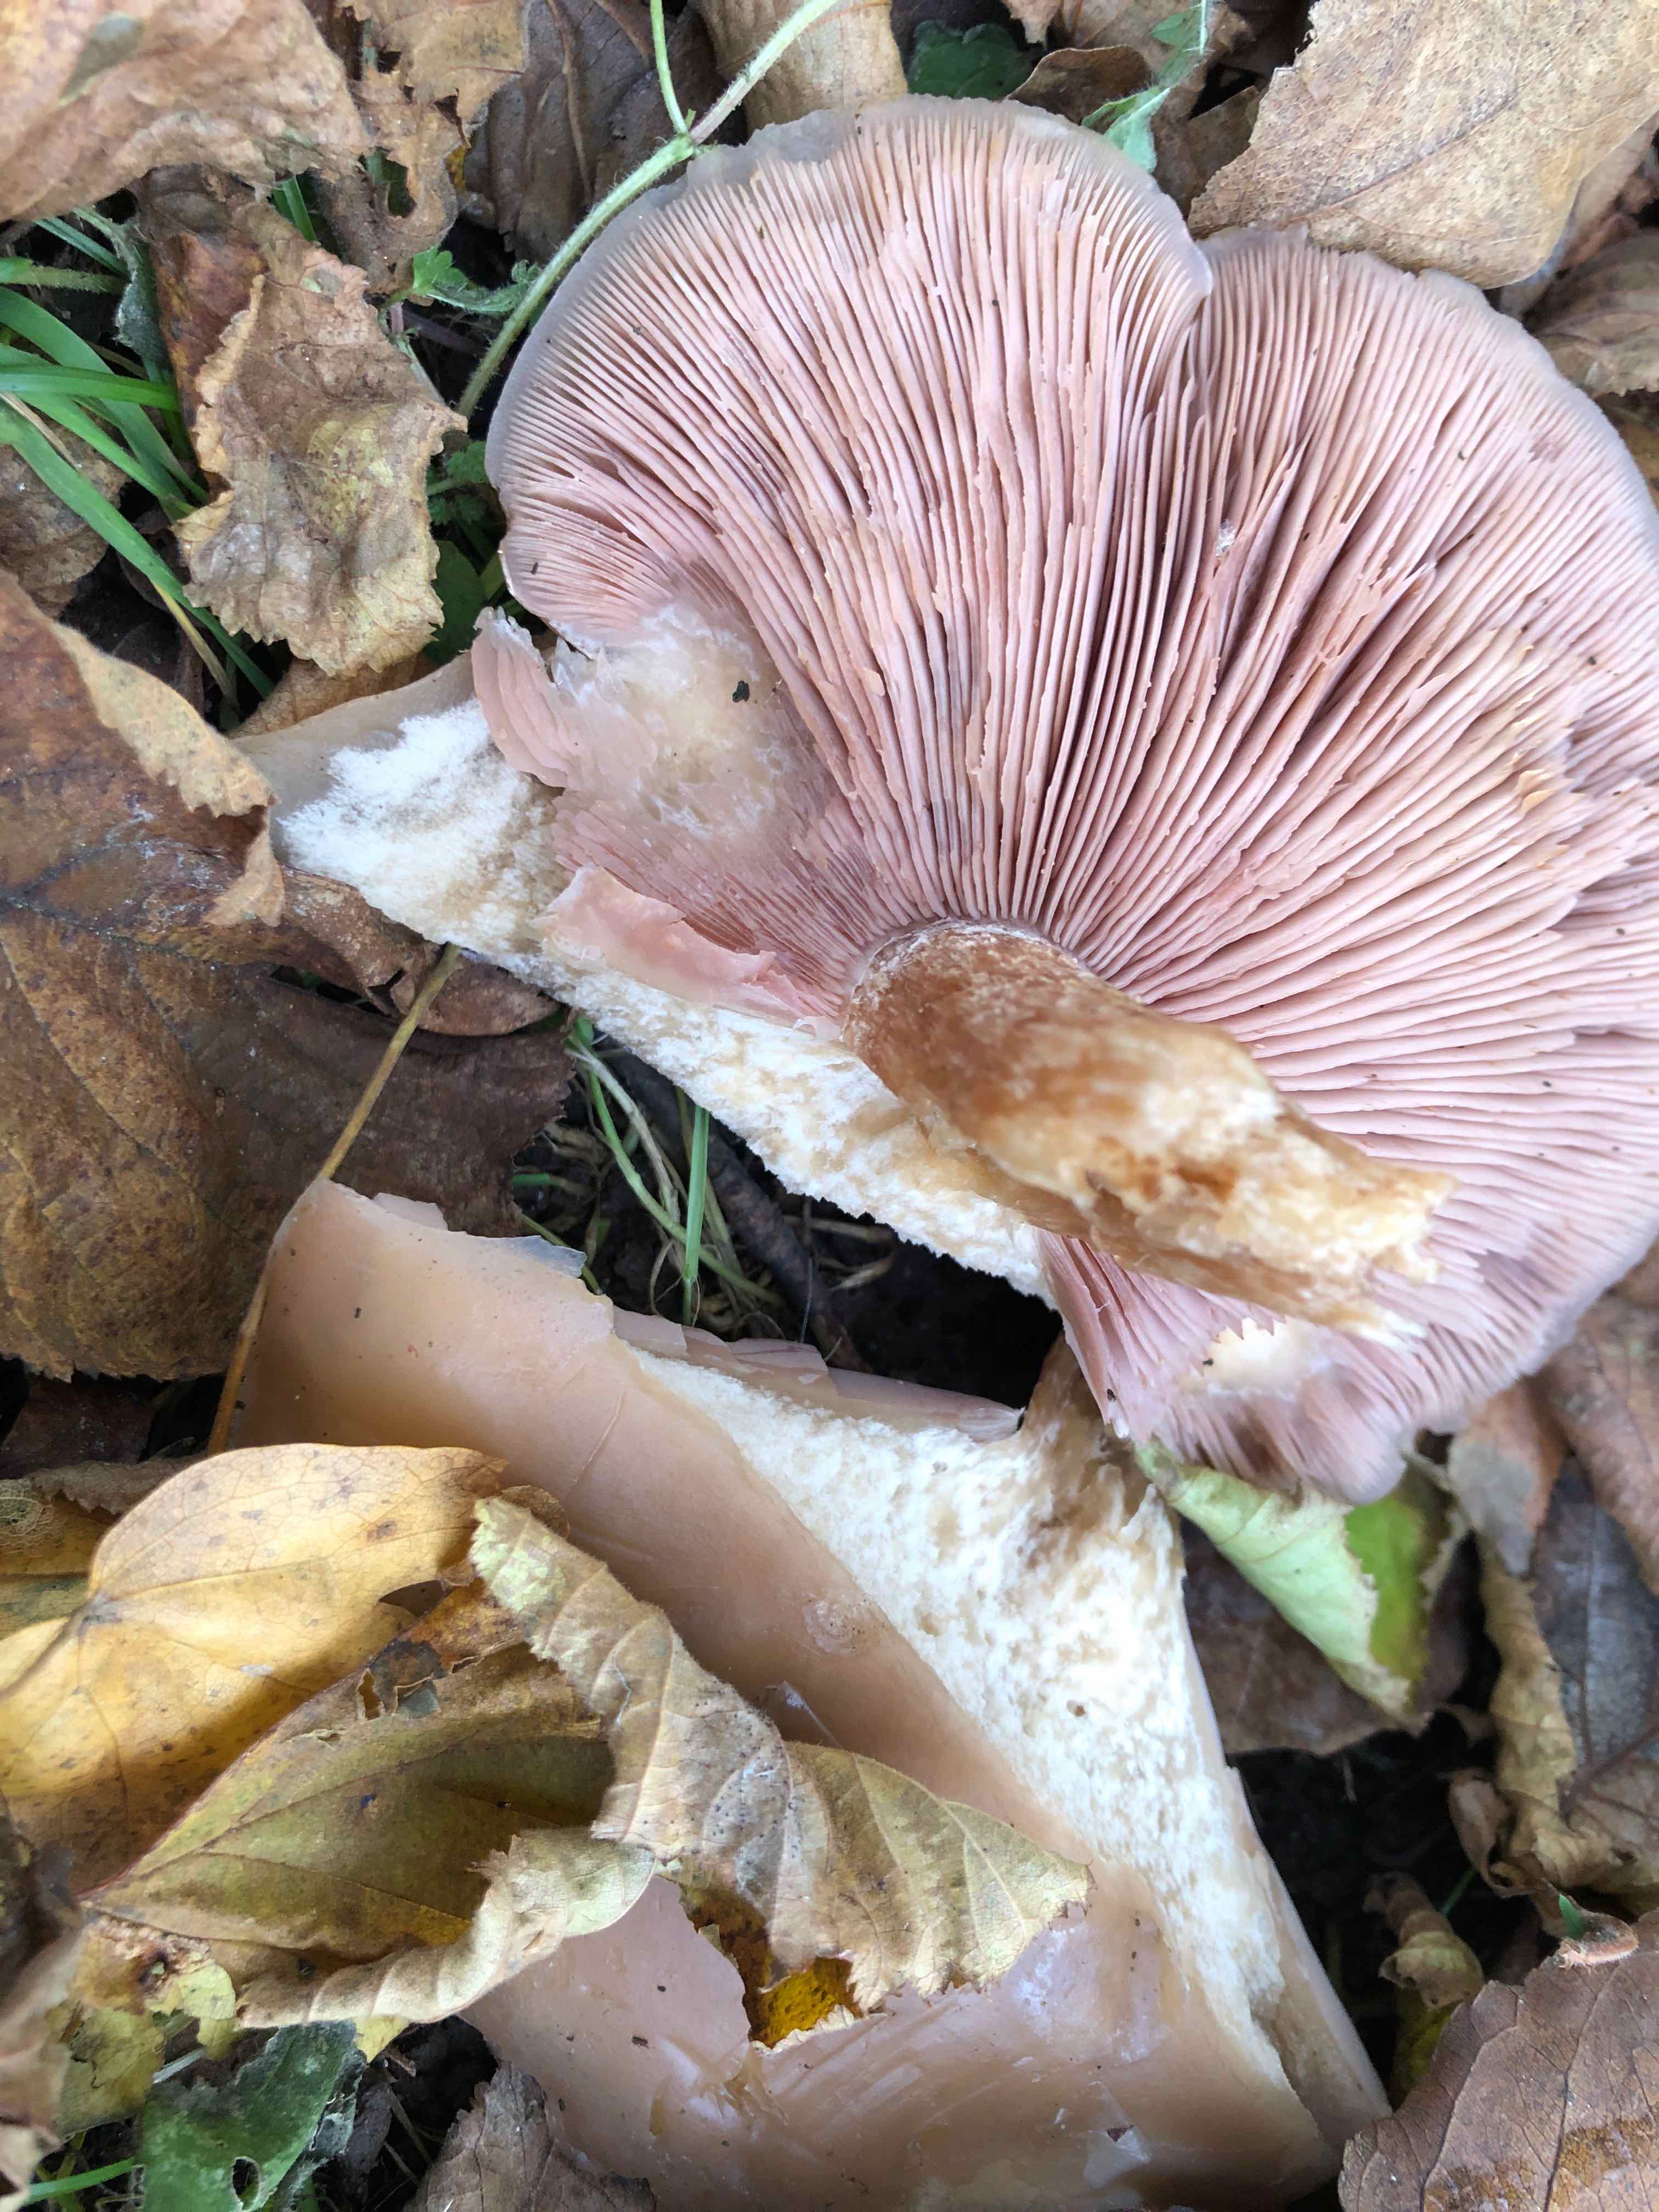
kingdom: Fungi
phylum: Basidiomycota
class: Agaricomycetes
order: Agaricales
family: Tricholomataceae
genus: Lepista
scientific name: Lepista nuda
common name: violet hekseringshat
